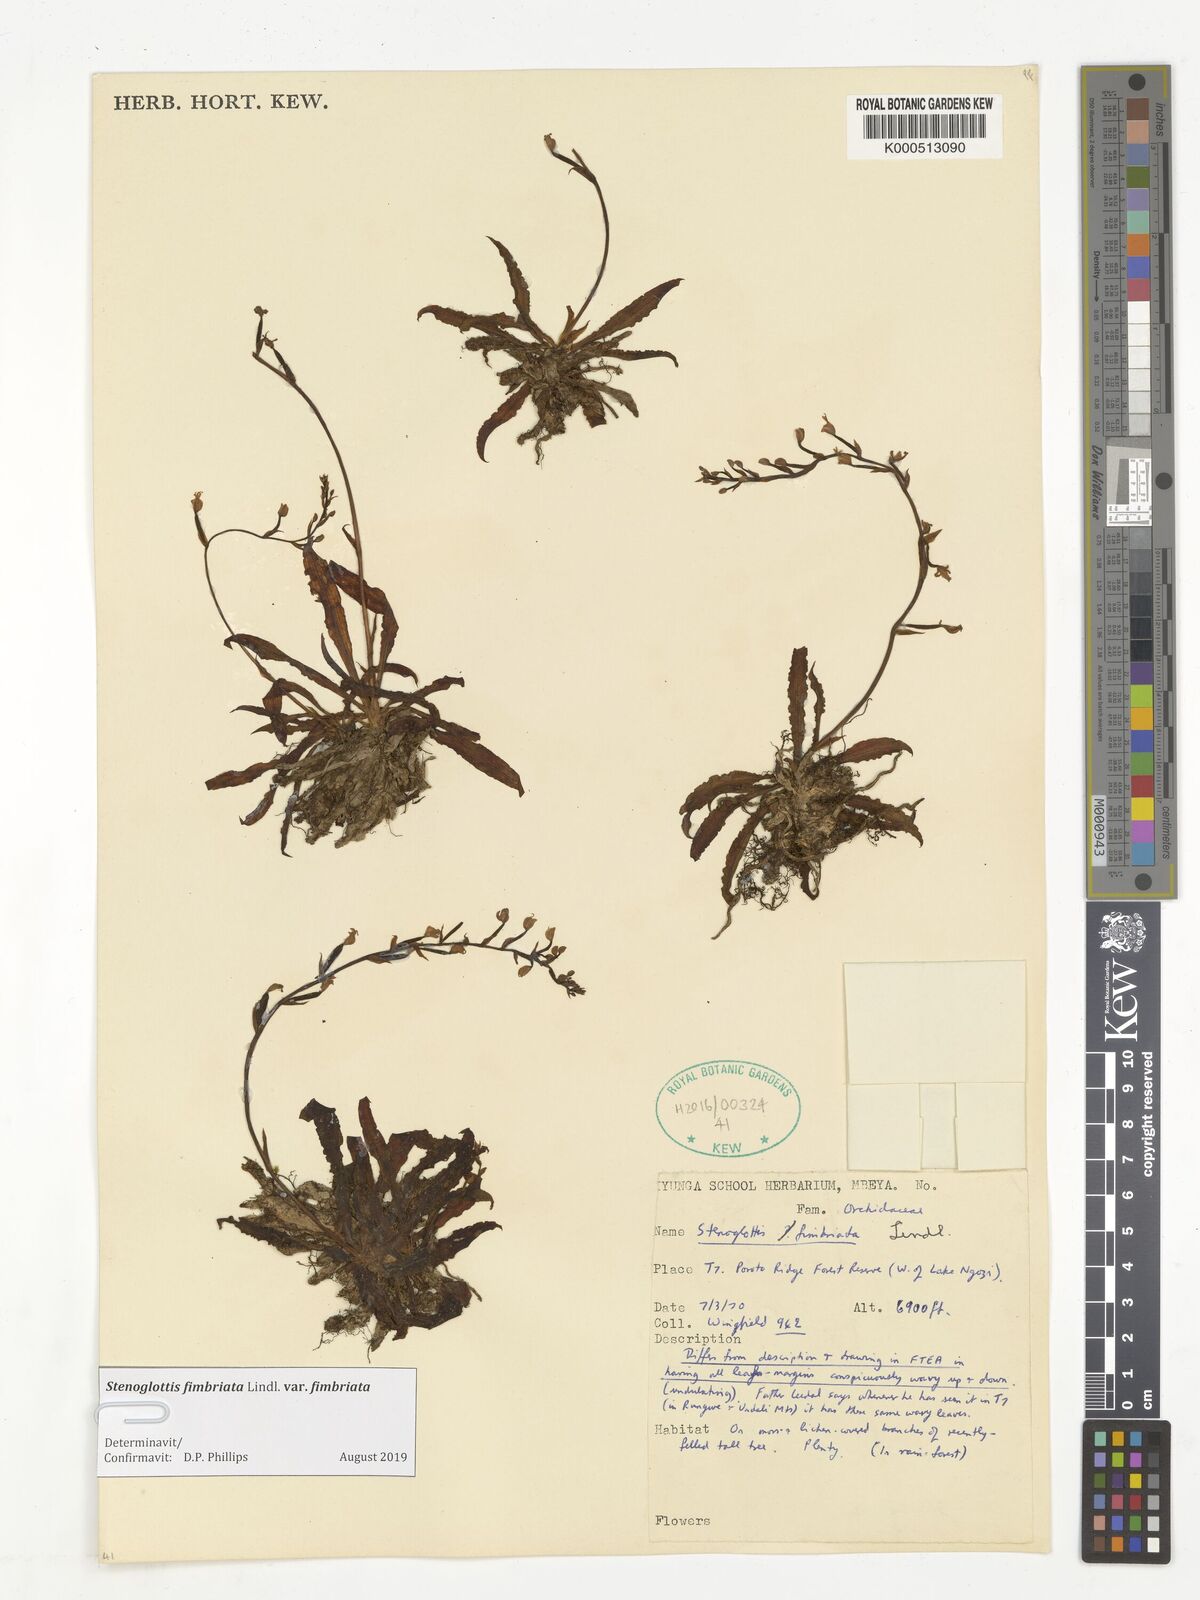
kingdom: Plantae
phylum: Tracheophyta
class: Liliopsida
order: Asparagales
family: Orchidaceae
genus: Stenoglottis
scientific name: Stenoglottis fimbriata
